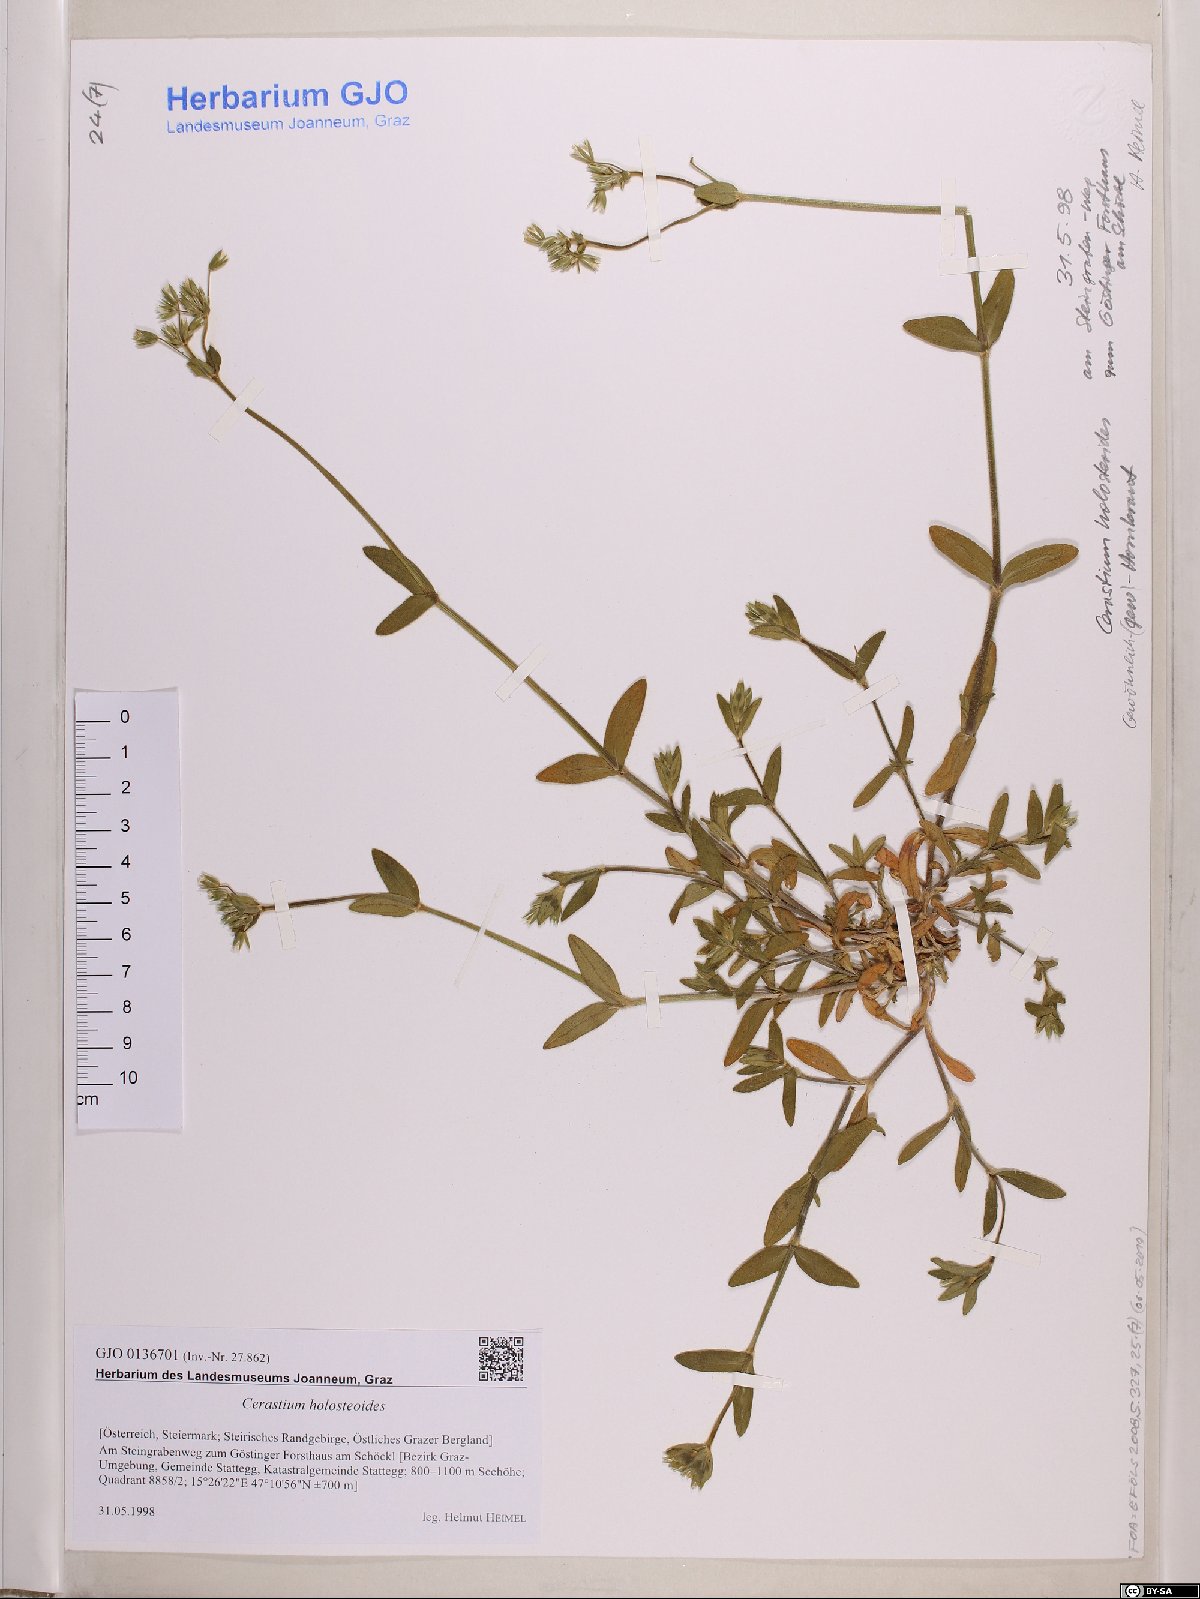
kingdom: Plantae
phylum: Tracheophyta
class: Magnoliopsida
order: Caryophyllales
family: Caryophyllaceae
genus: Cerastium
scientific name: Cerastium holosteoides
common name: Big chickweed
